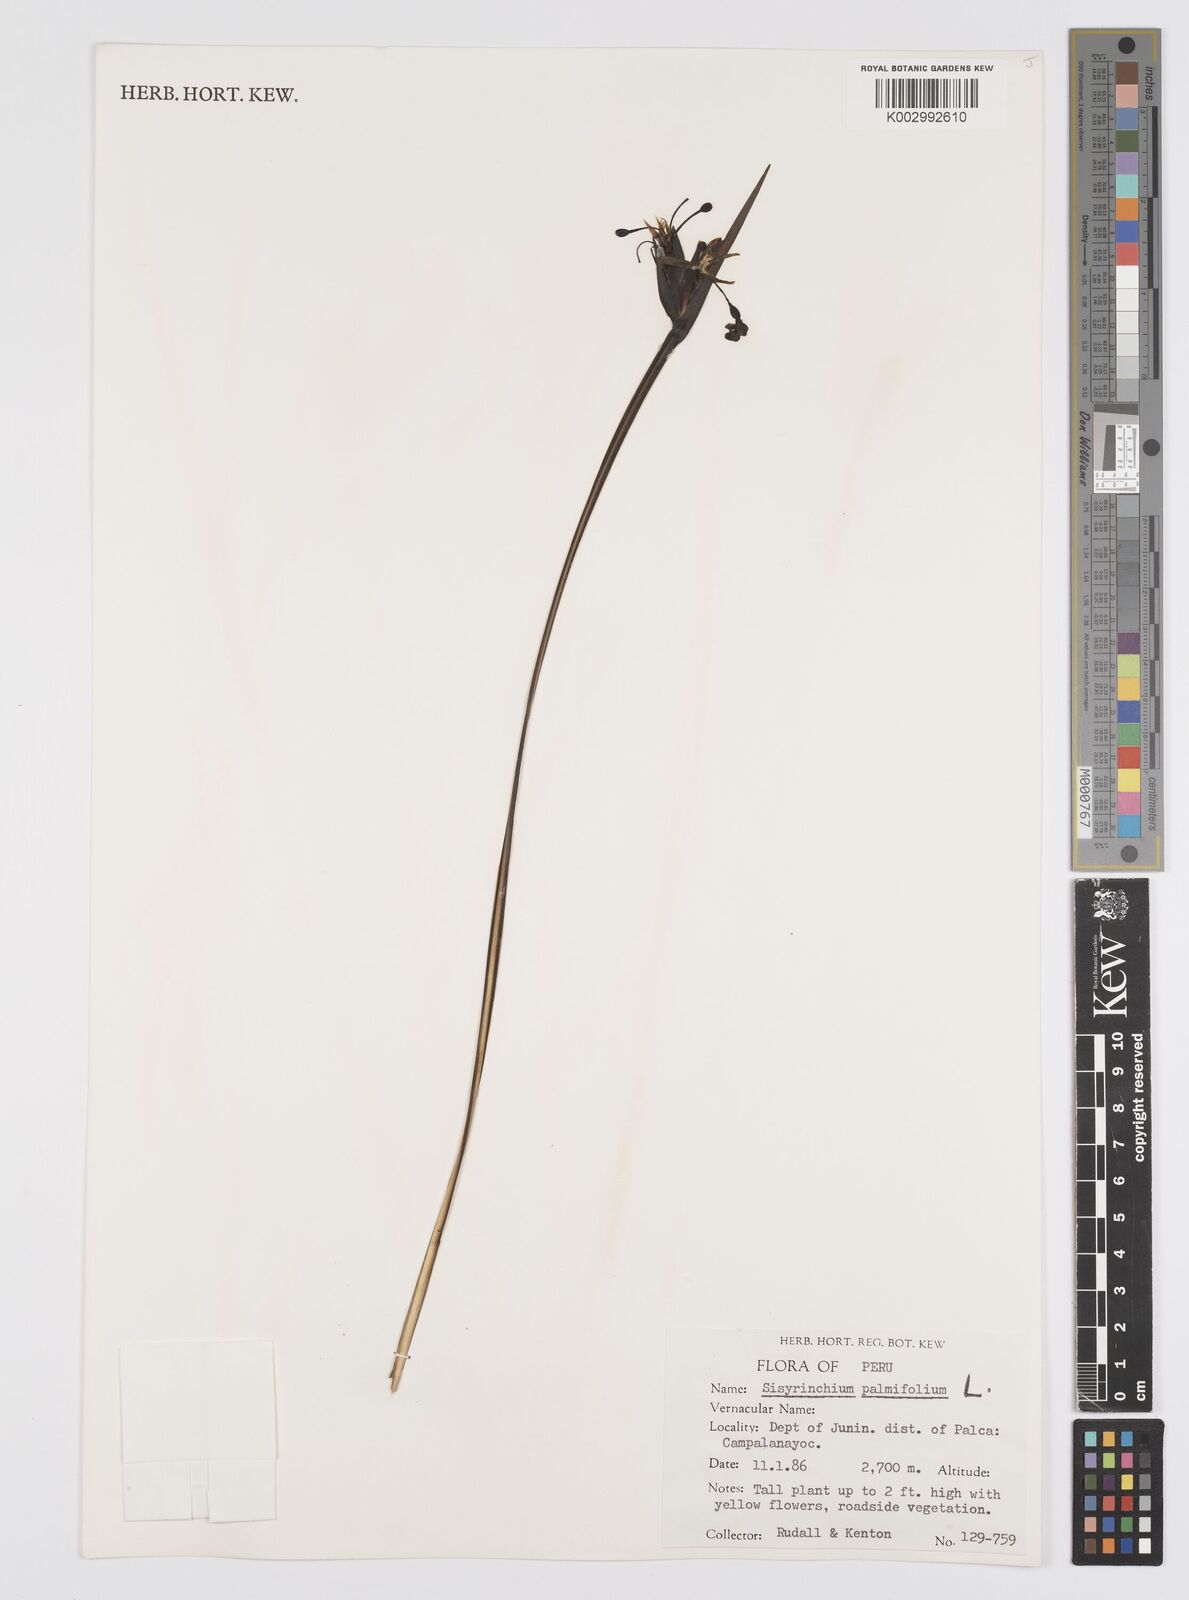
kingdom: Plantae
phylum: Tracheophyta
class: Liliopsida
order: Asparagales
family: Iridaceae
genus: Sisyrinchium
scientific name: Sisyrinchium palmifolium
